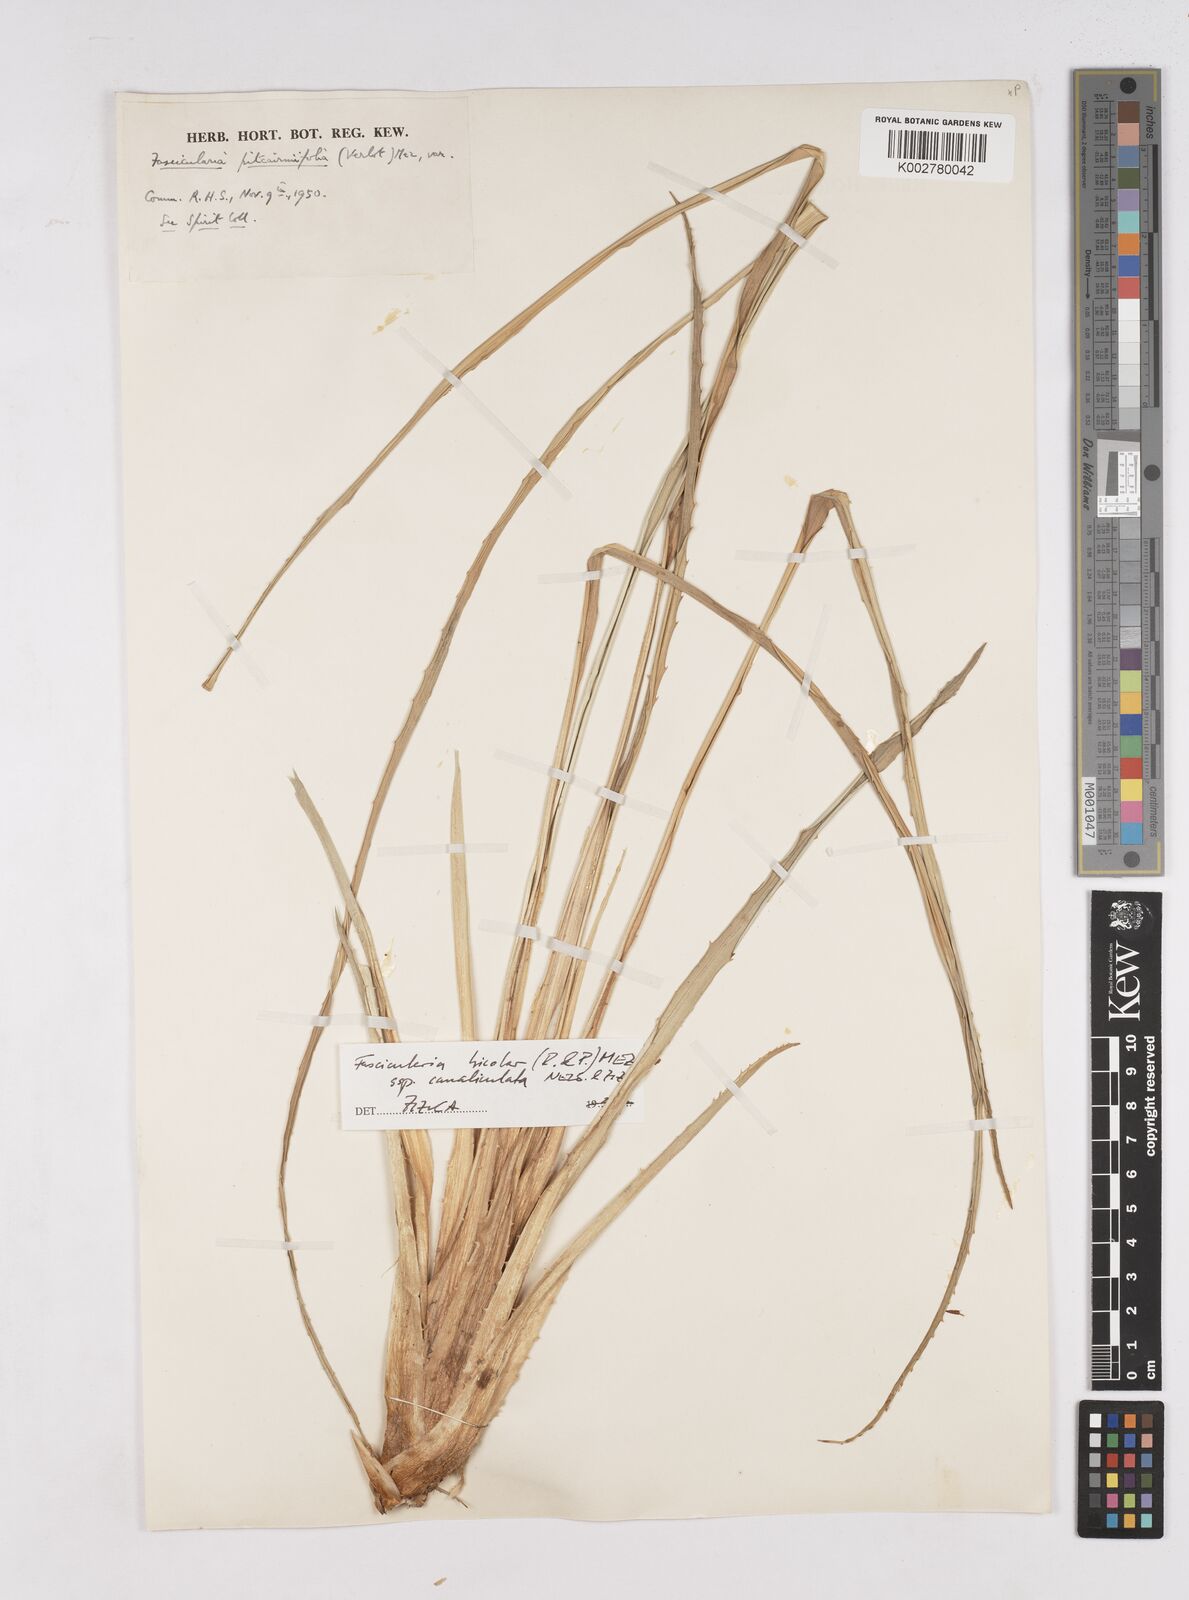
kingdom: Plantae
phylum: Tracheophyta
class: Liliopsida
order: Poales
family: Bromeliaceae
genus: Hechtia
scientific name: Hechtia pitcairniifolia
